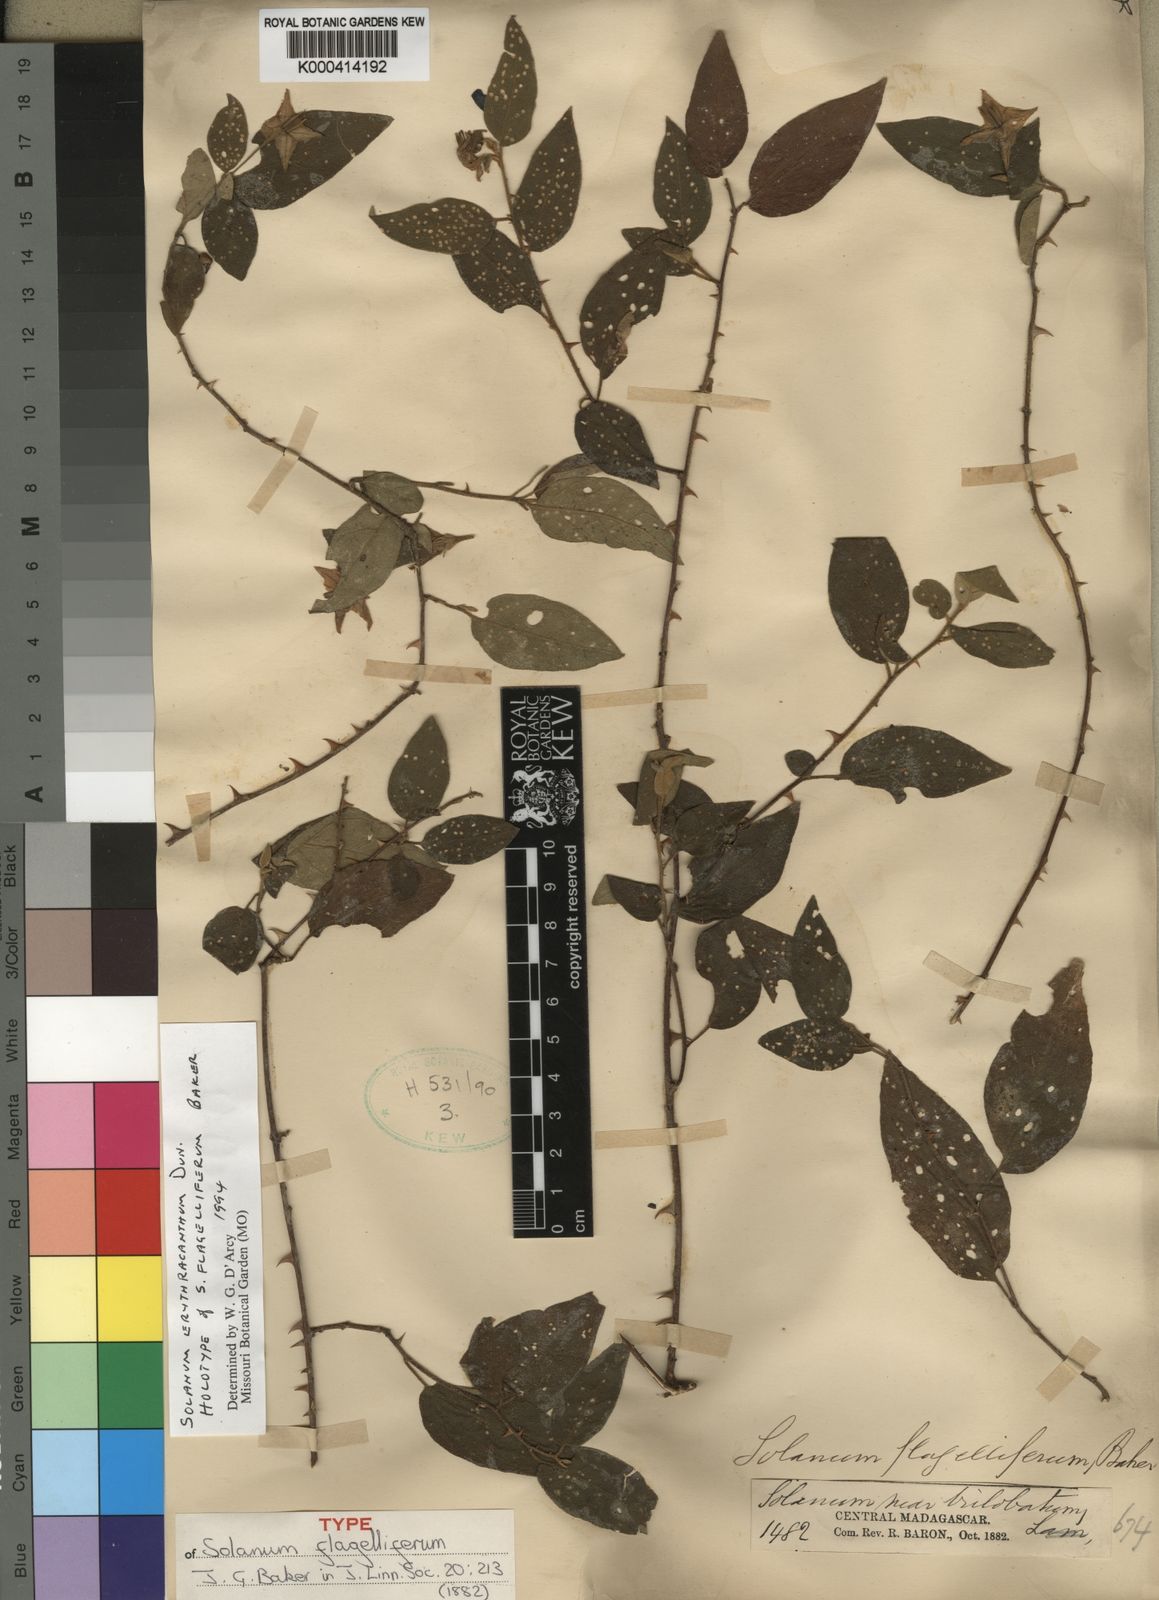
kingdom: Plantae
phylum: Tracheophyta
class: Magnoliopsida
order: Solanales
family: Solanaceae
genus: Solanum
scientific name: Solanum erythracanthum
